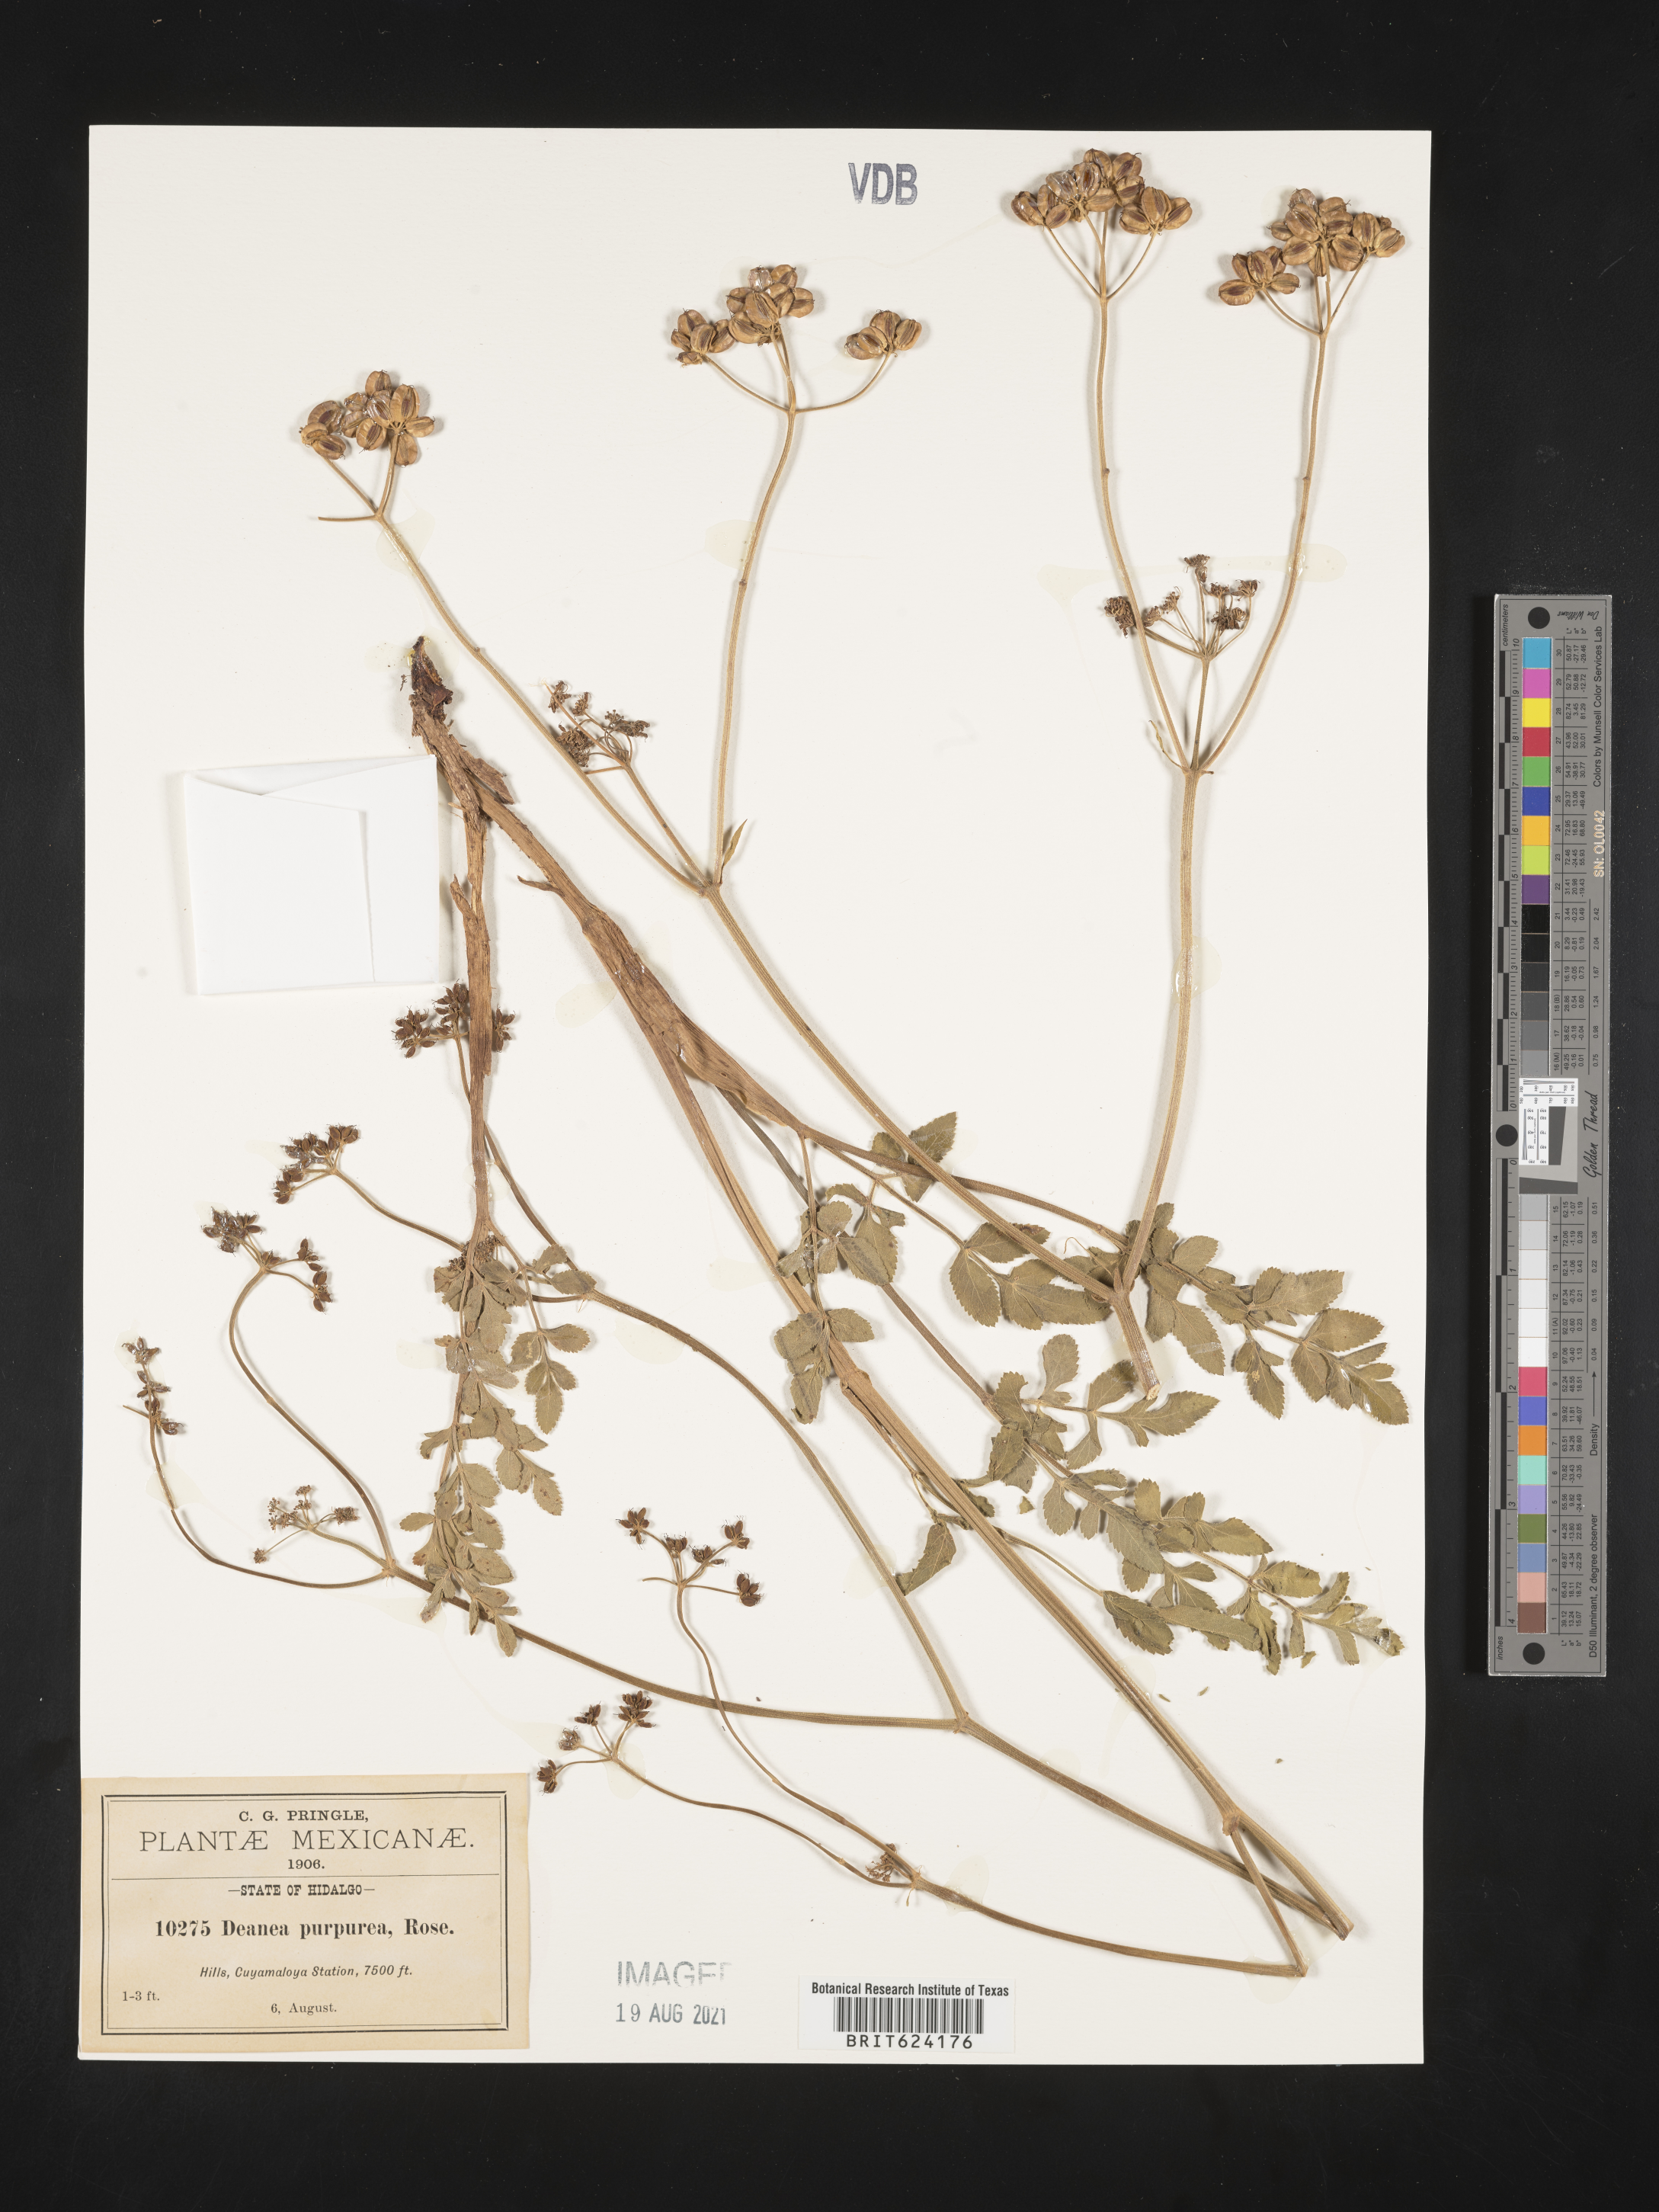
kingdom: Animalia
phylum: Chordata
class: Aves
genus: Deanea
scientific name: Deanea
